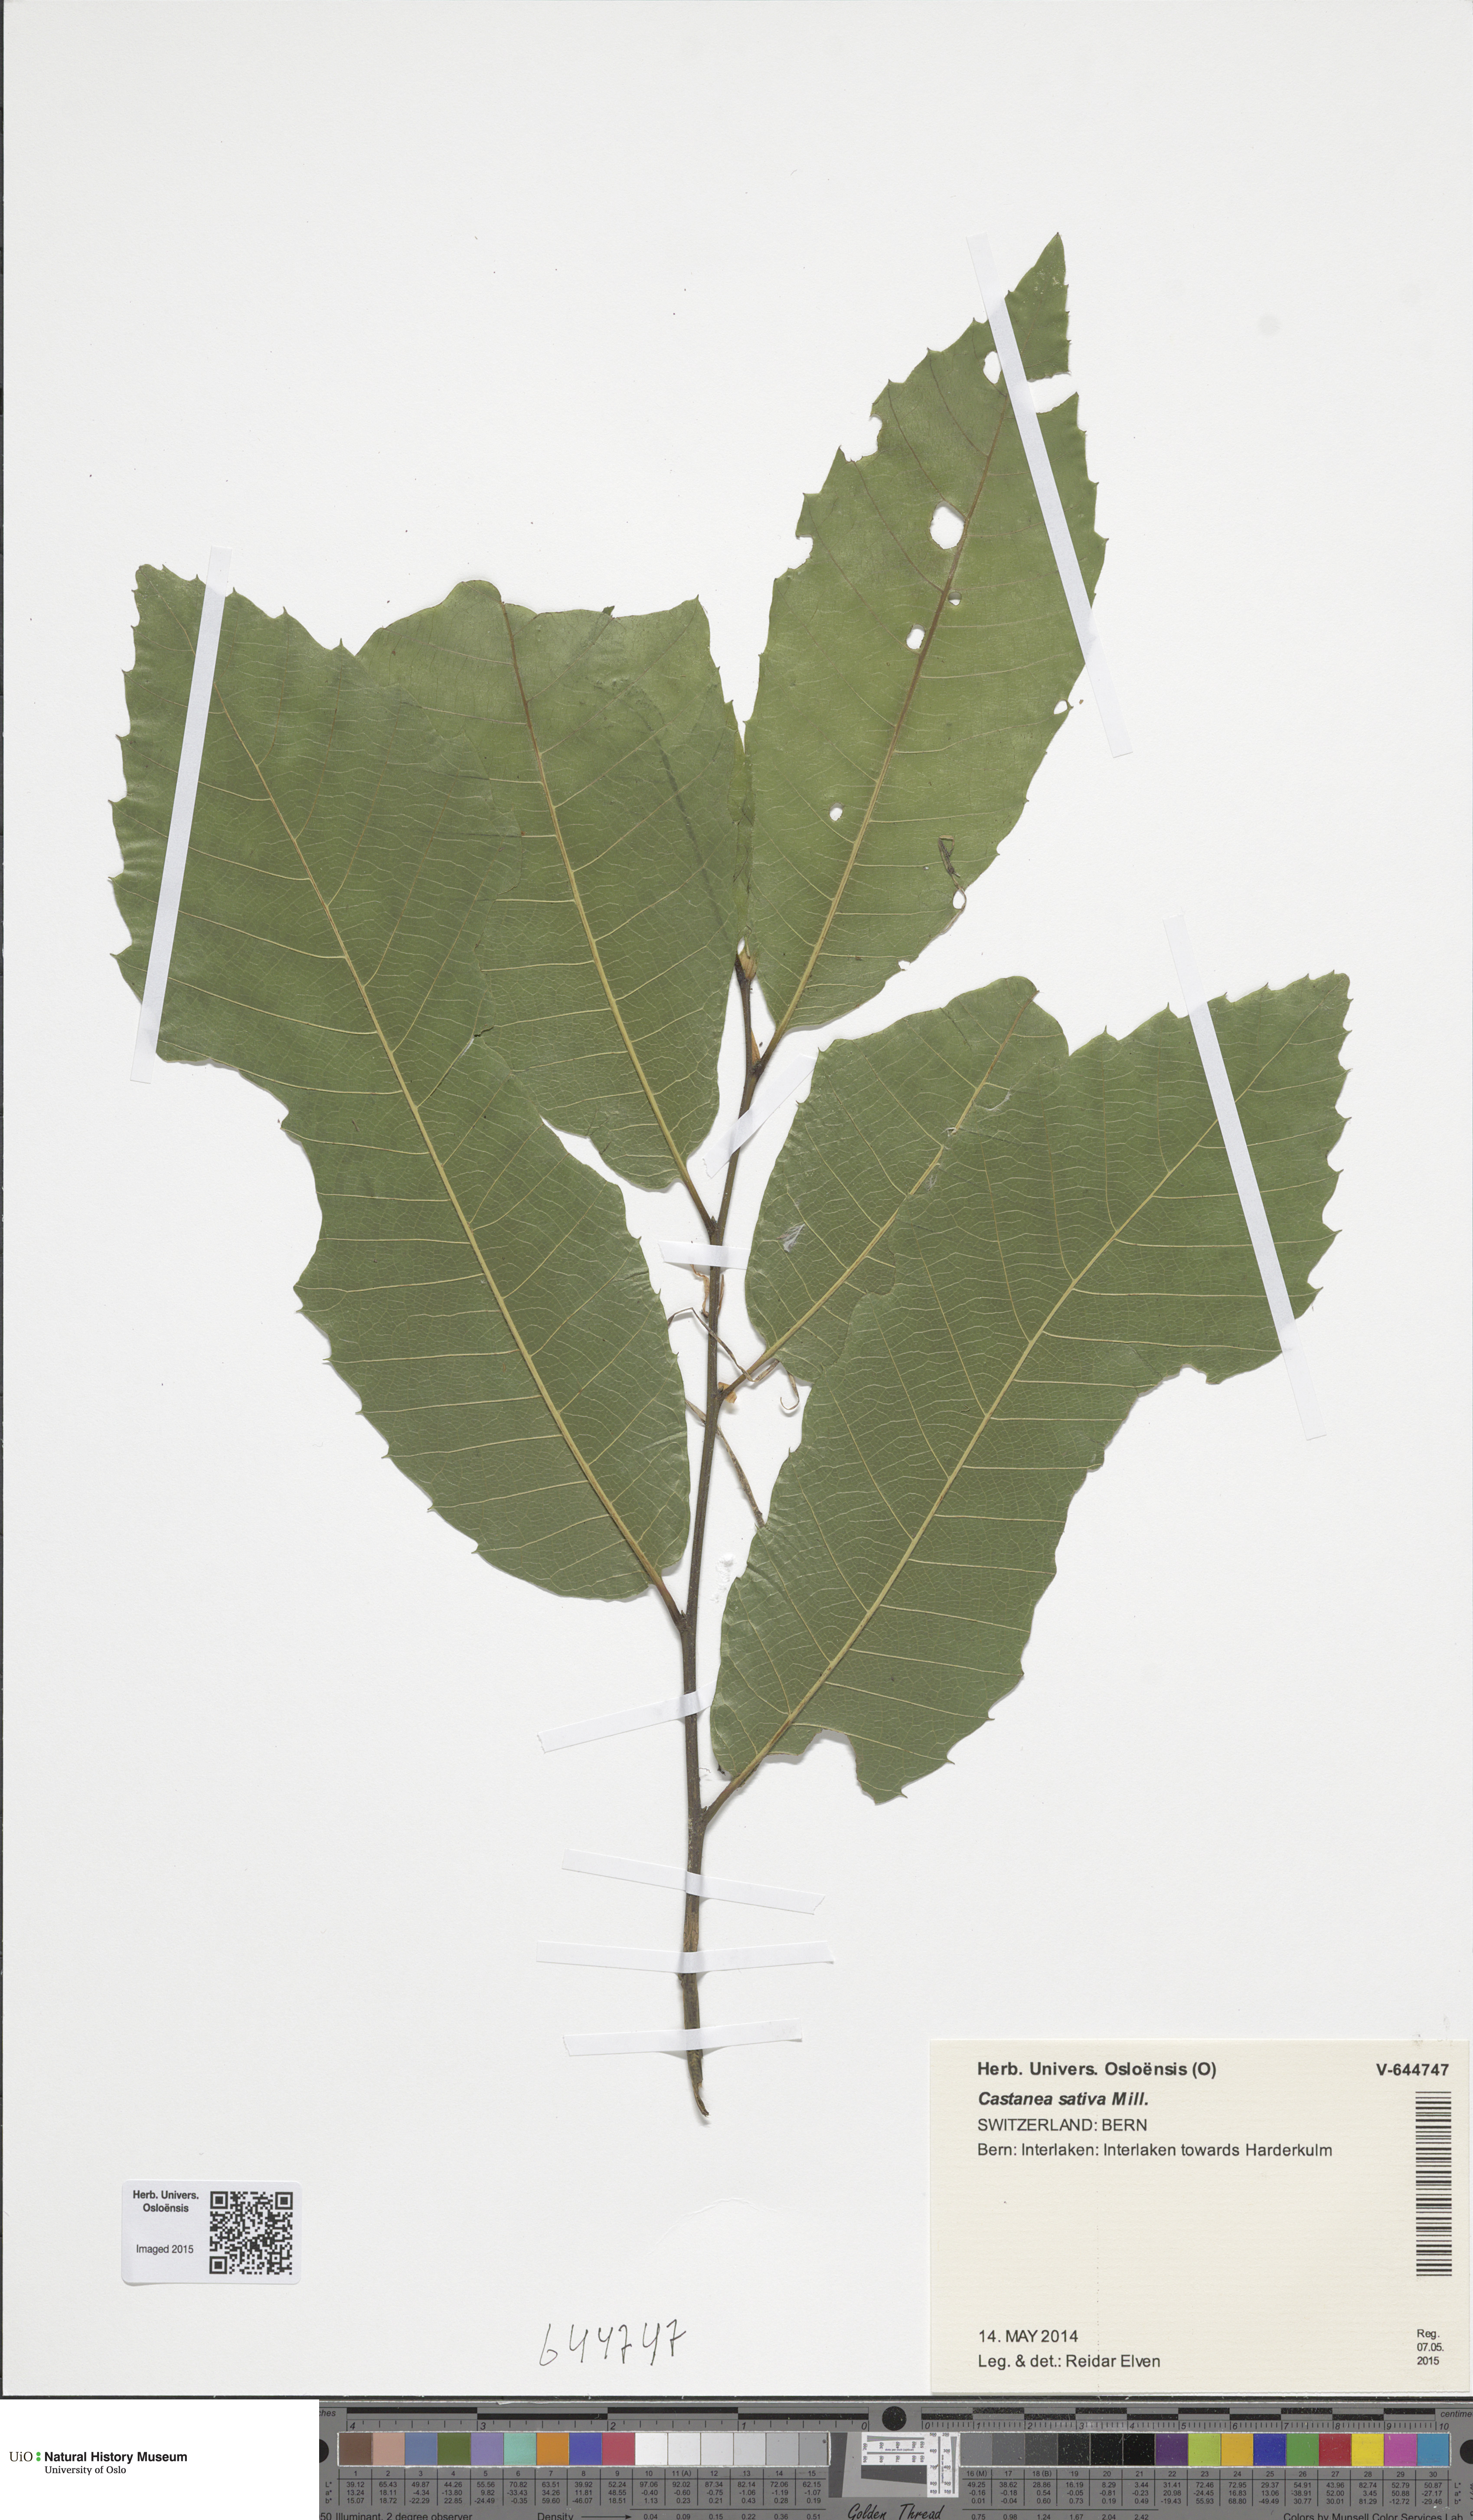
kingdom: Plantae
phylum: Tracheophyta
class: Magnoliopsida
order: Fagales
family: Fagaceae
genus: Castanea
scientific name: Castanea sativa
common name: Sweet chestnut
